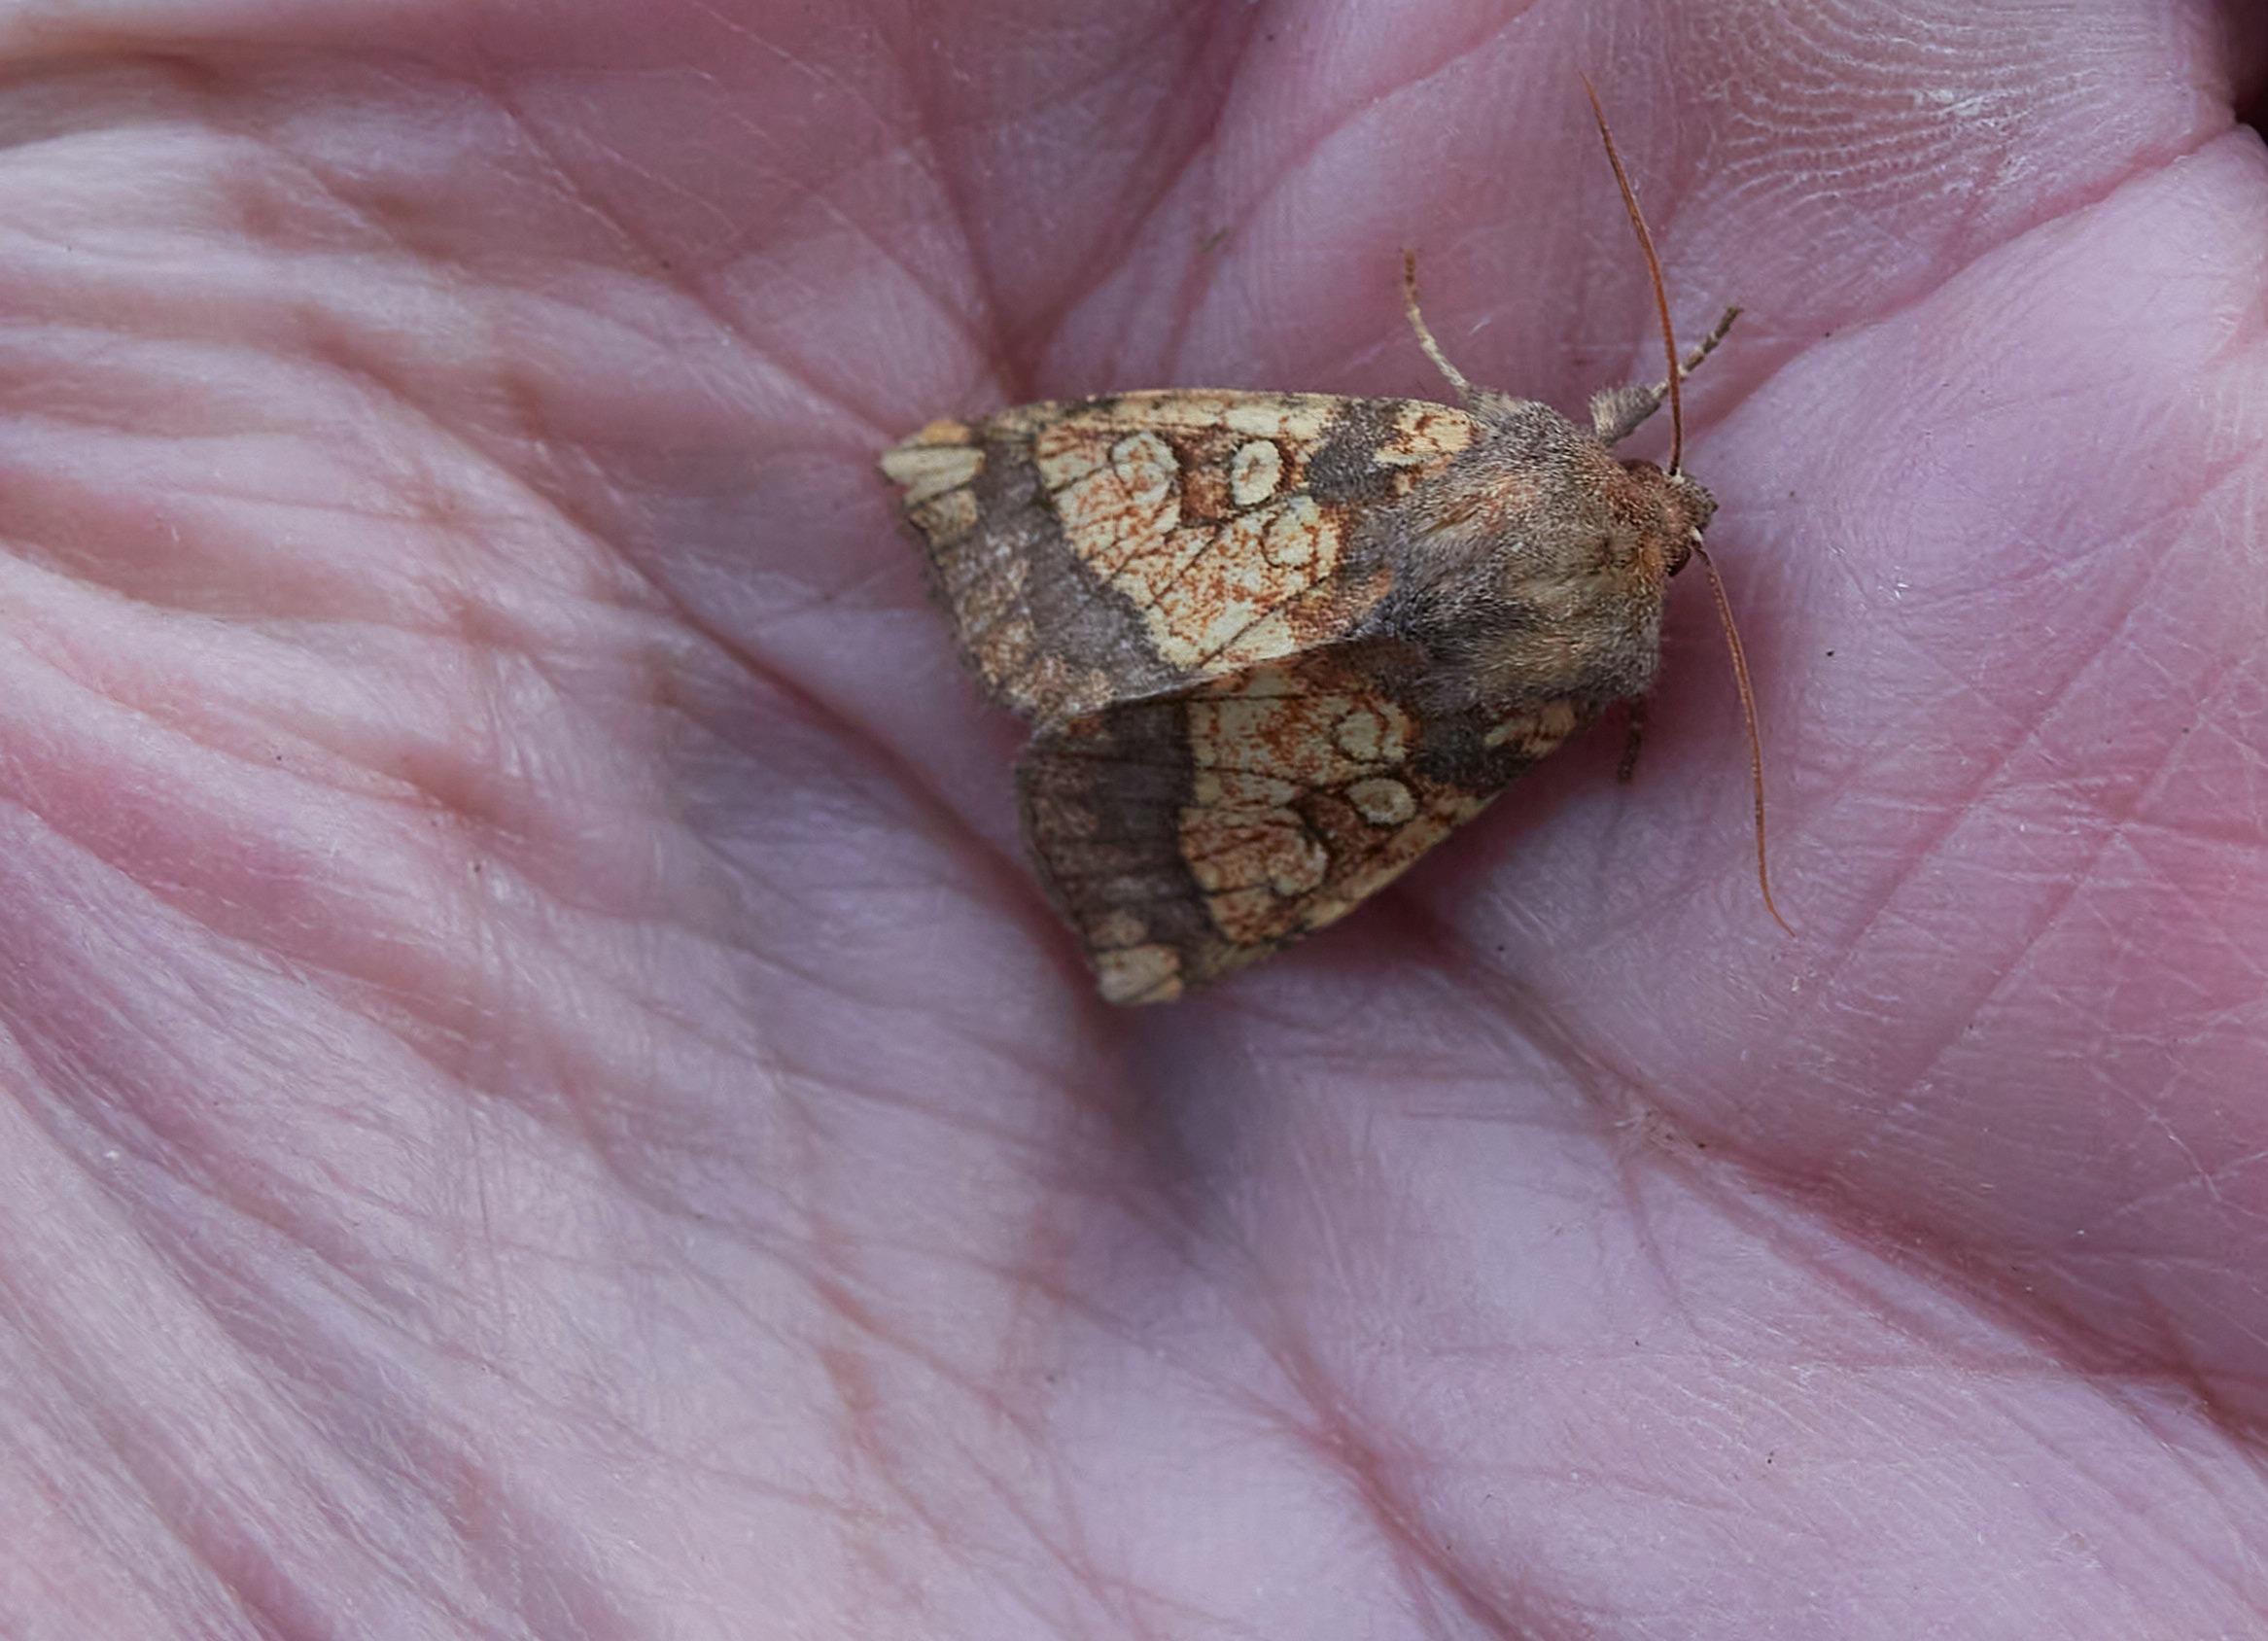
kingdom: Animalia
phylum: Arthropoda
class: Insecta
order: Lepidoptera
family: Noctuidae
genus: Gortyna
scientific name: Gortyna flavago
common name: Burreugle
